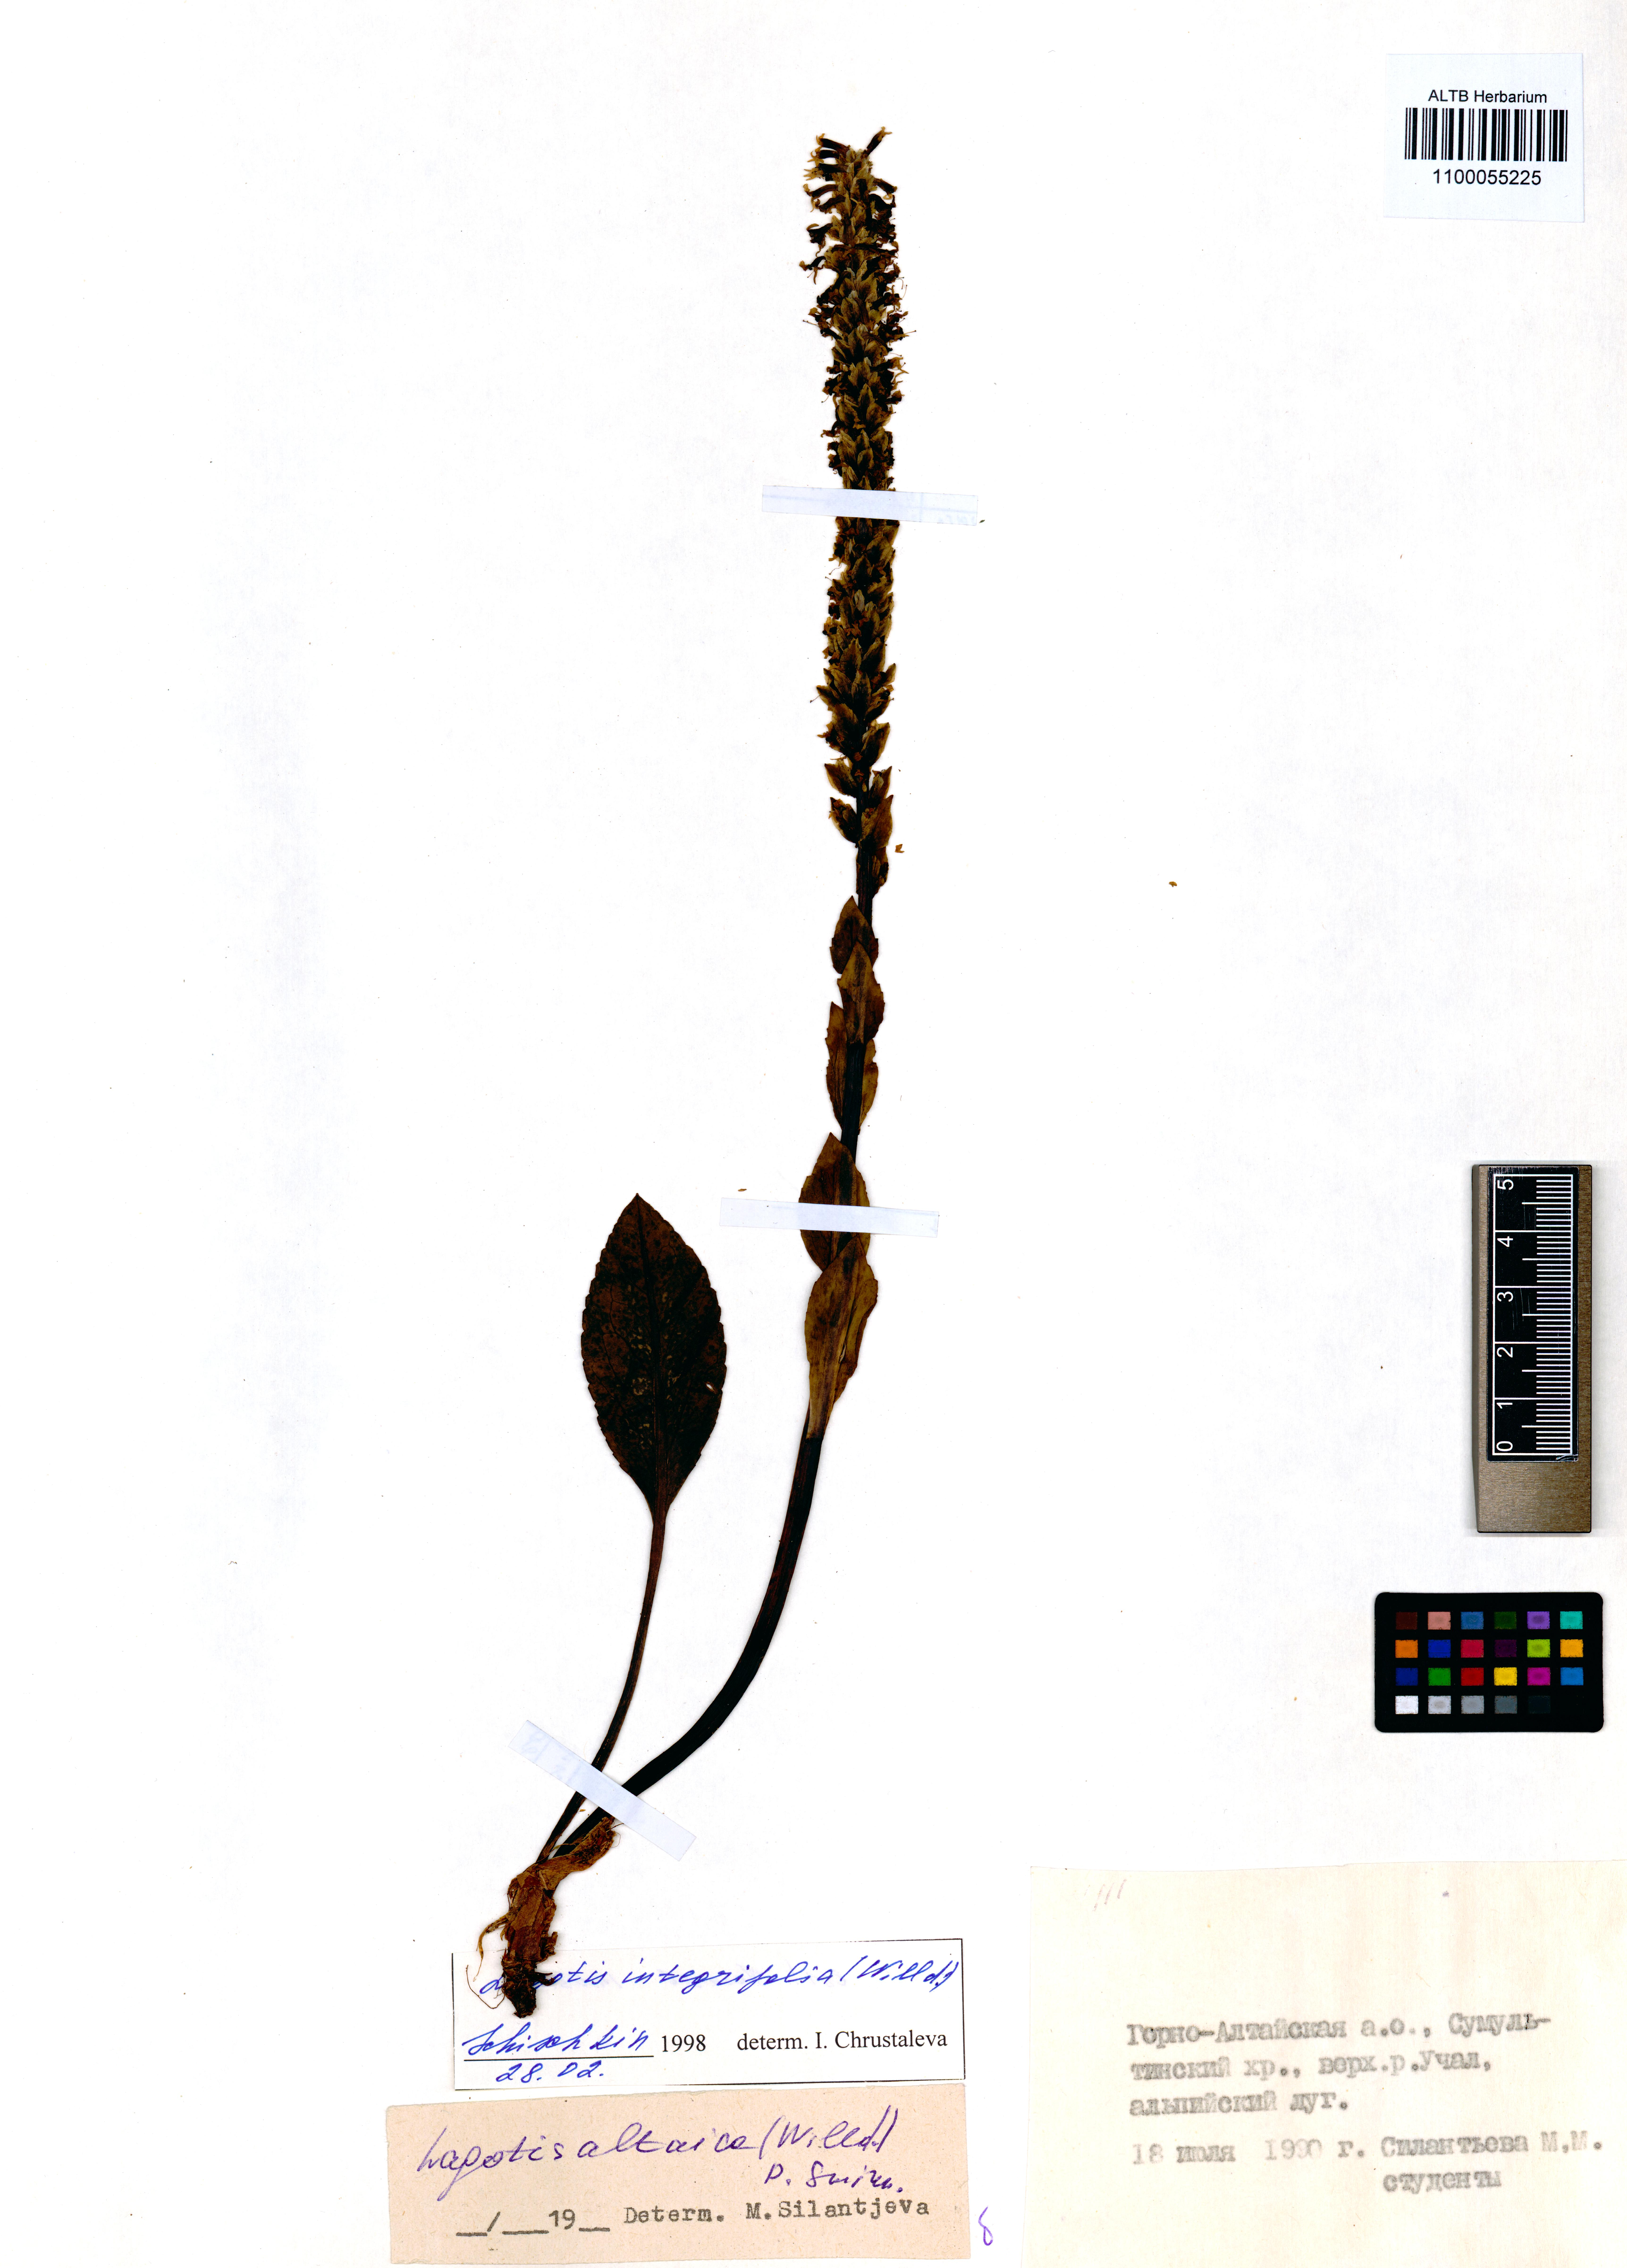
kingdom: Plantae
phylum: Tracheophyta
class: Magnoliopsida
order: Lamiales
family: Plantaginaceae
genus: Lagotis
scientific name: Lagotis integrifolia
